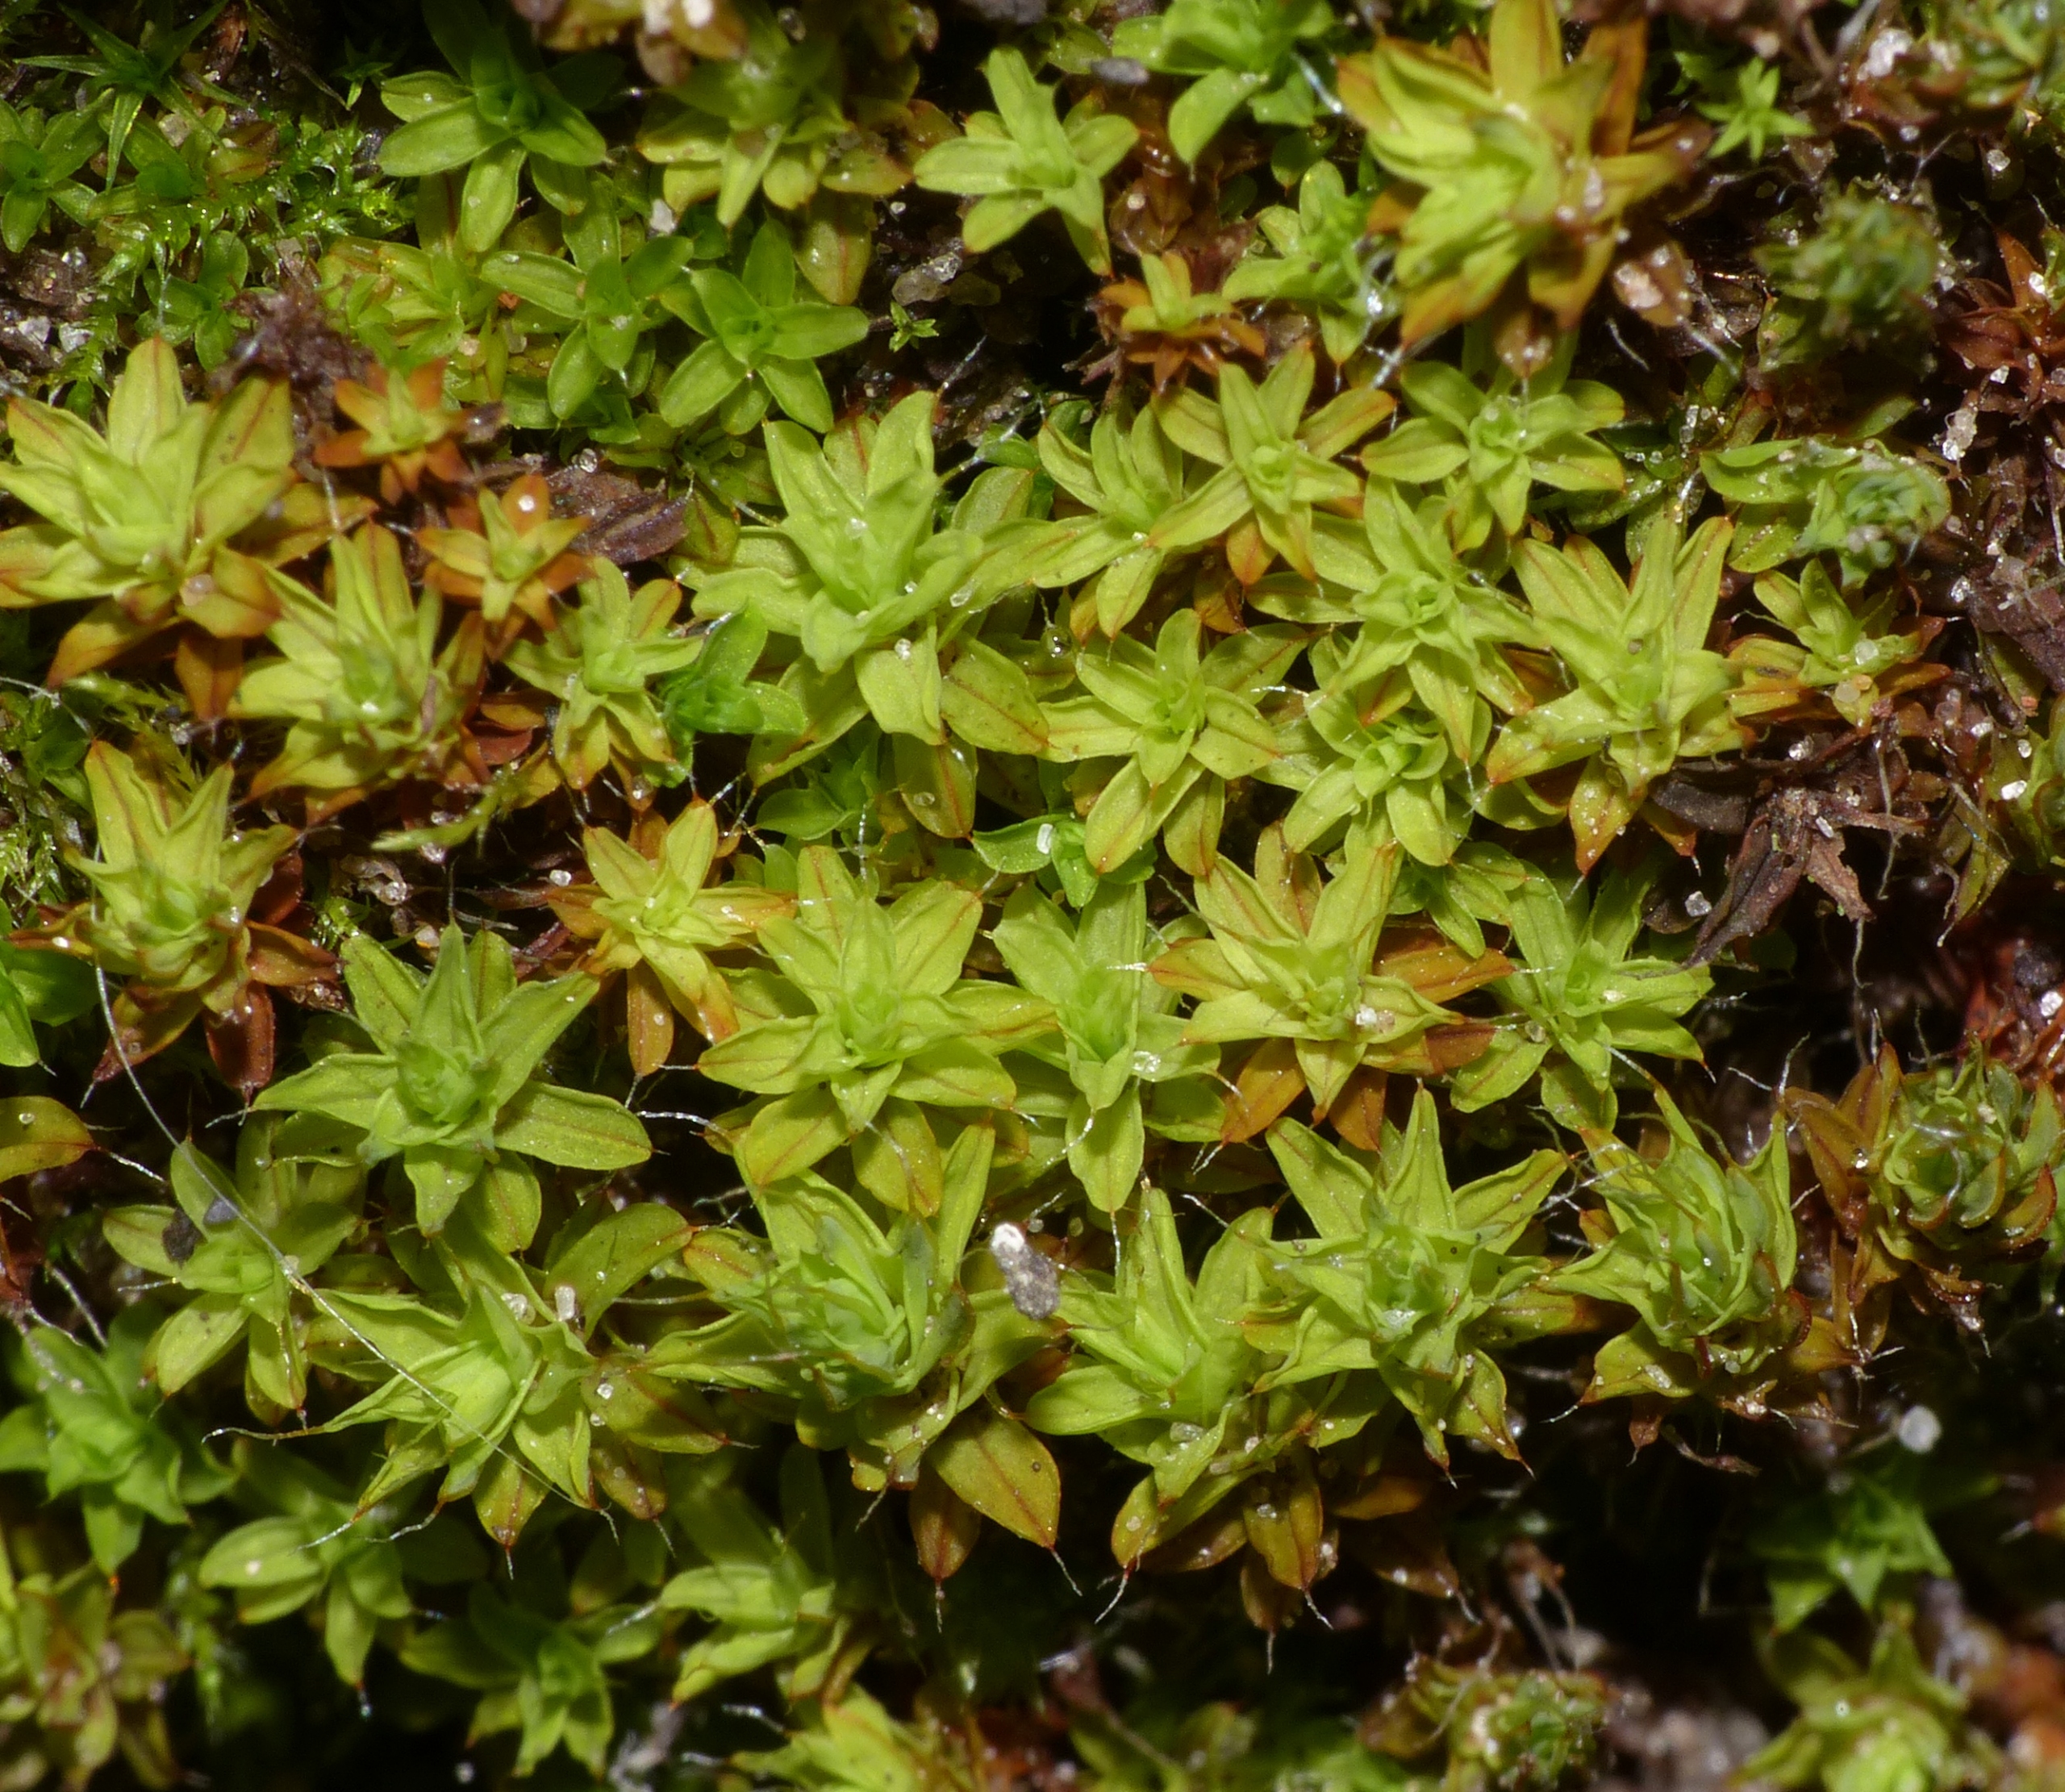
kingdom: Plantae
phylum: Bryophyta
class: Bryopsida
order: Pottiales
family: Pottiaceae
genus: Syntrichia
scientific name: Syntrichia ruralis
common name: Tag-hårstjerne
